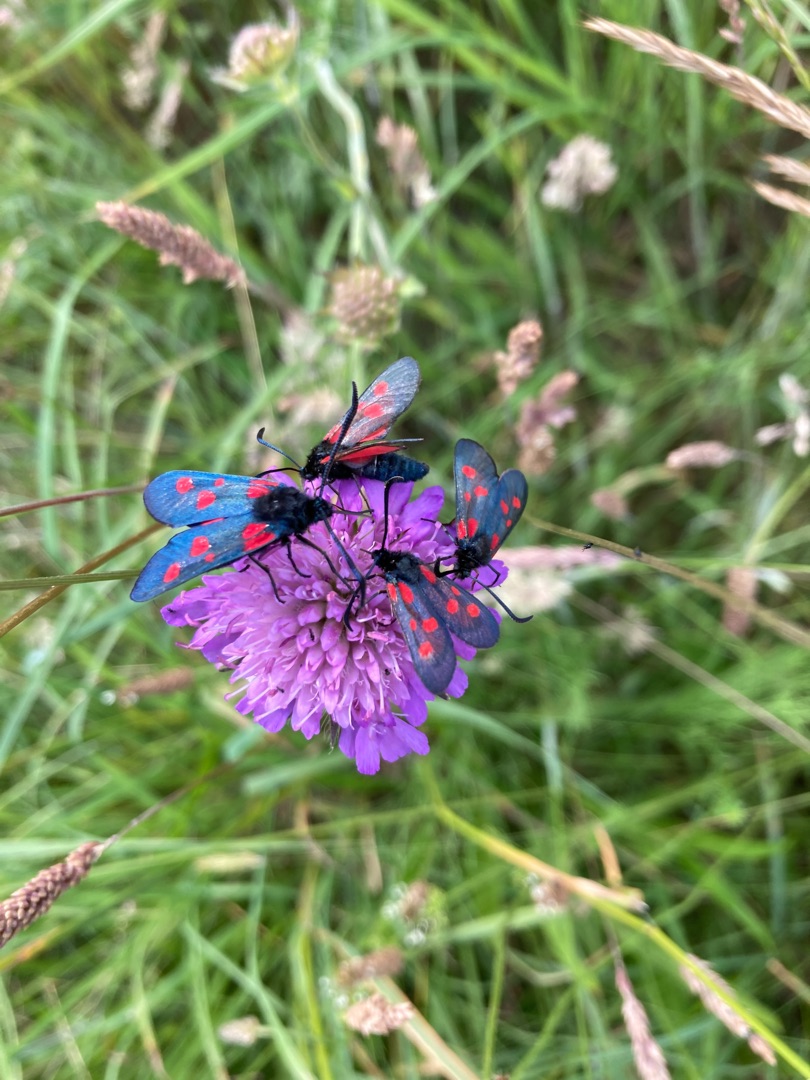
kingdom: Animalia
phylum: Arthropoda
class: Insecta
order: Lepidoptera
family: Zygaenidae
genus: Zygaena
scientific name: Zygaena lonicerae
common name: Femplettet køllesværmer
